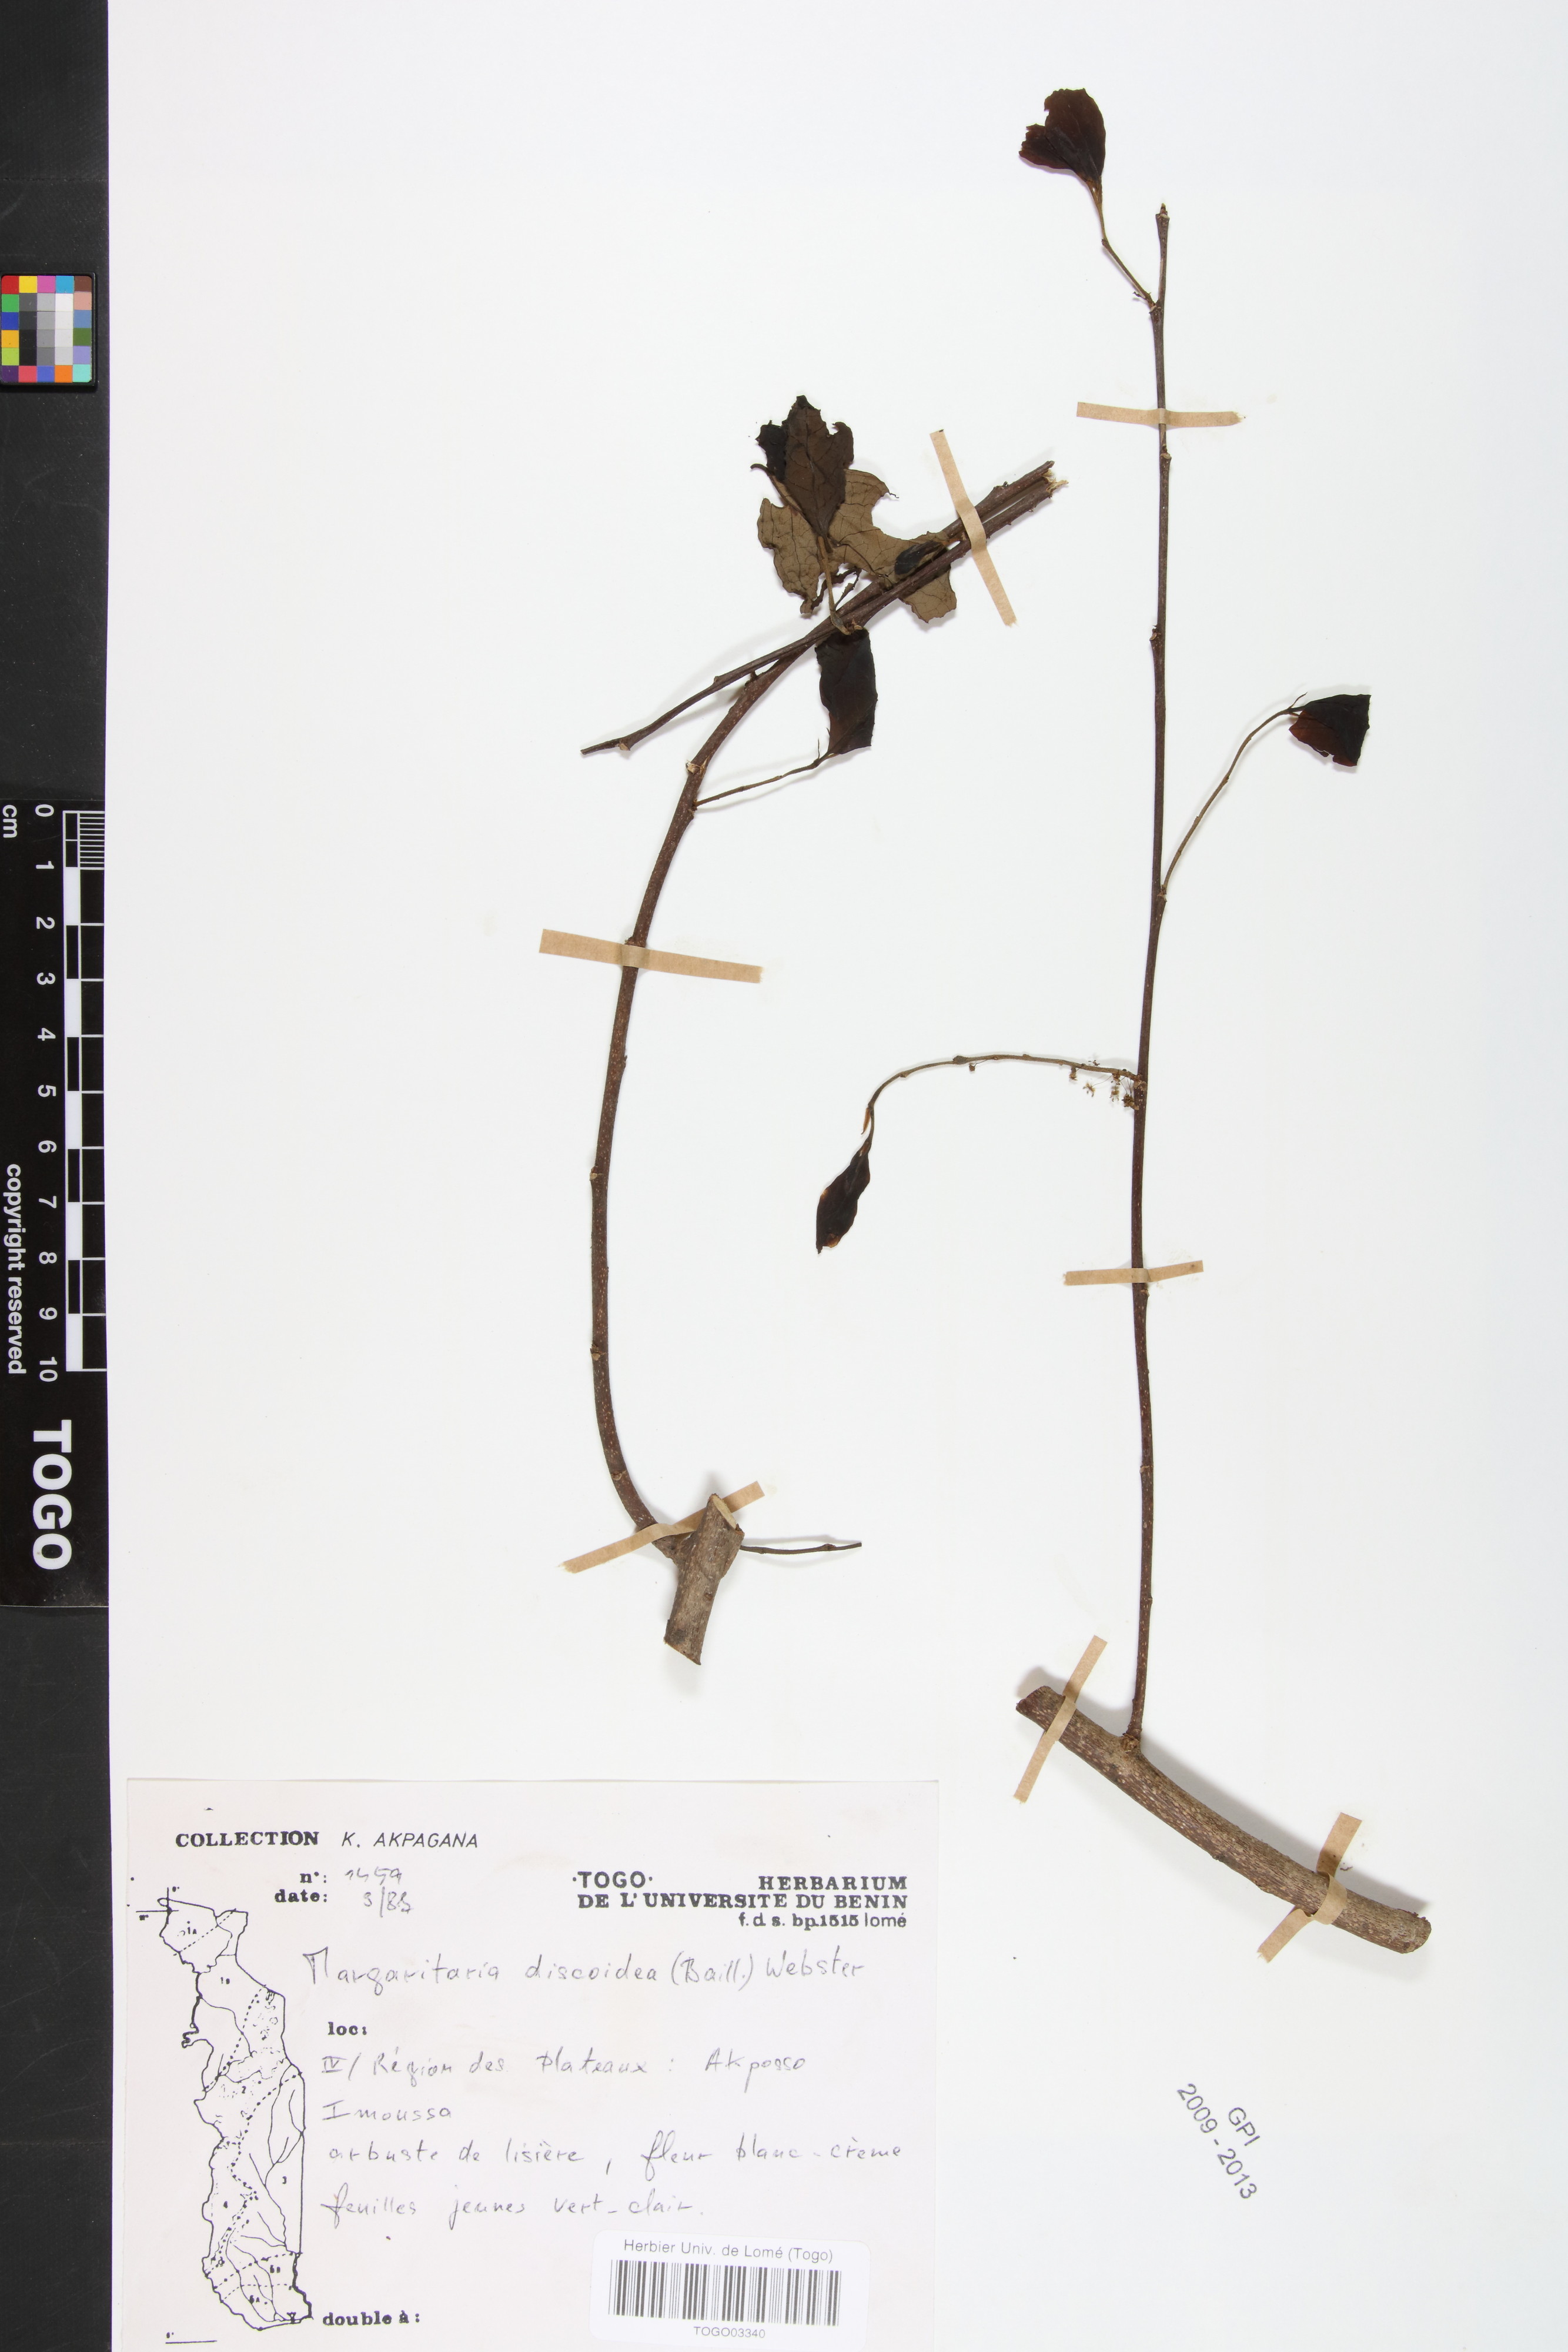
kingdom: Plantae
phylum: Tracheophyta
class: Magnoliopsida
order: Malpighiales
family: Phyllanthaceae
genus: Margaritaria
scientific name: Margaritaria discoidea
